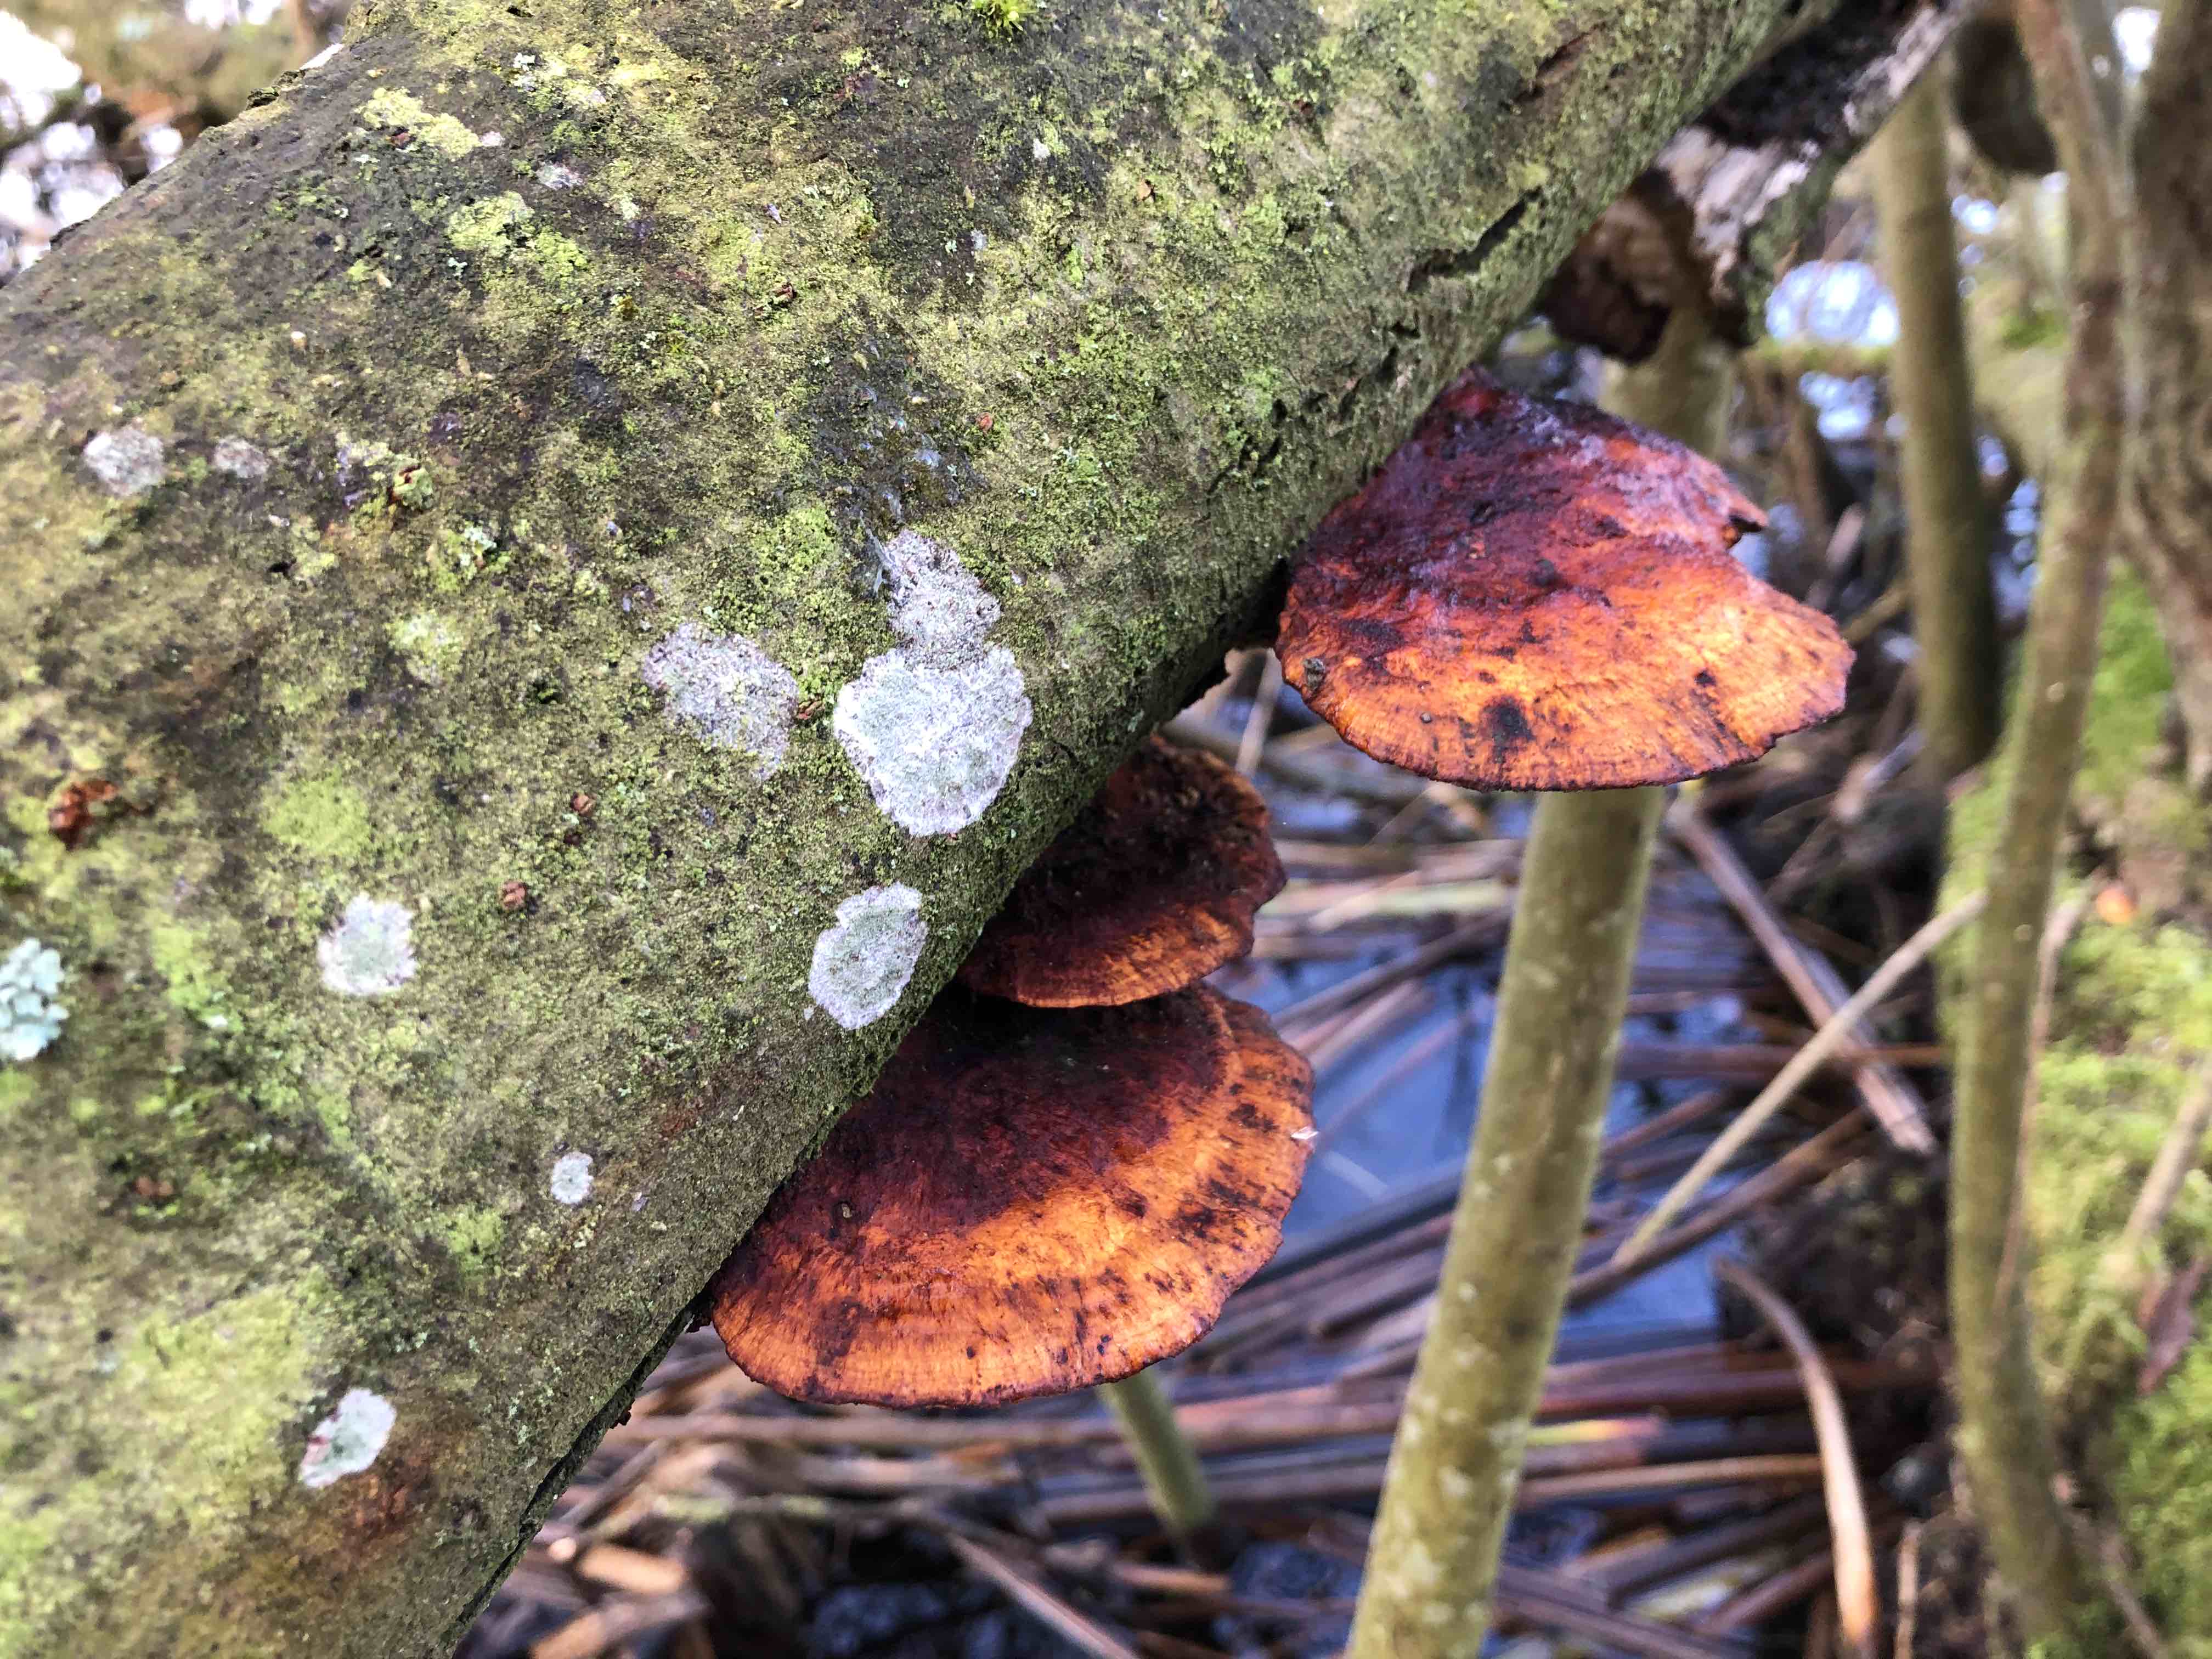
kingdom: Fungi
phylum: Basidiomycota
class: Agaricomycetes
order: Polyporales
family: Polyporaceae
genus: Daedaleopsis
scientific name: Daedaleopsis confragosa
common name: rødmende læderporesvamp
